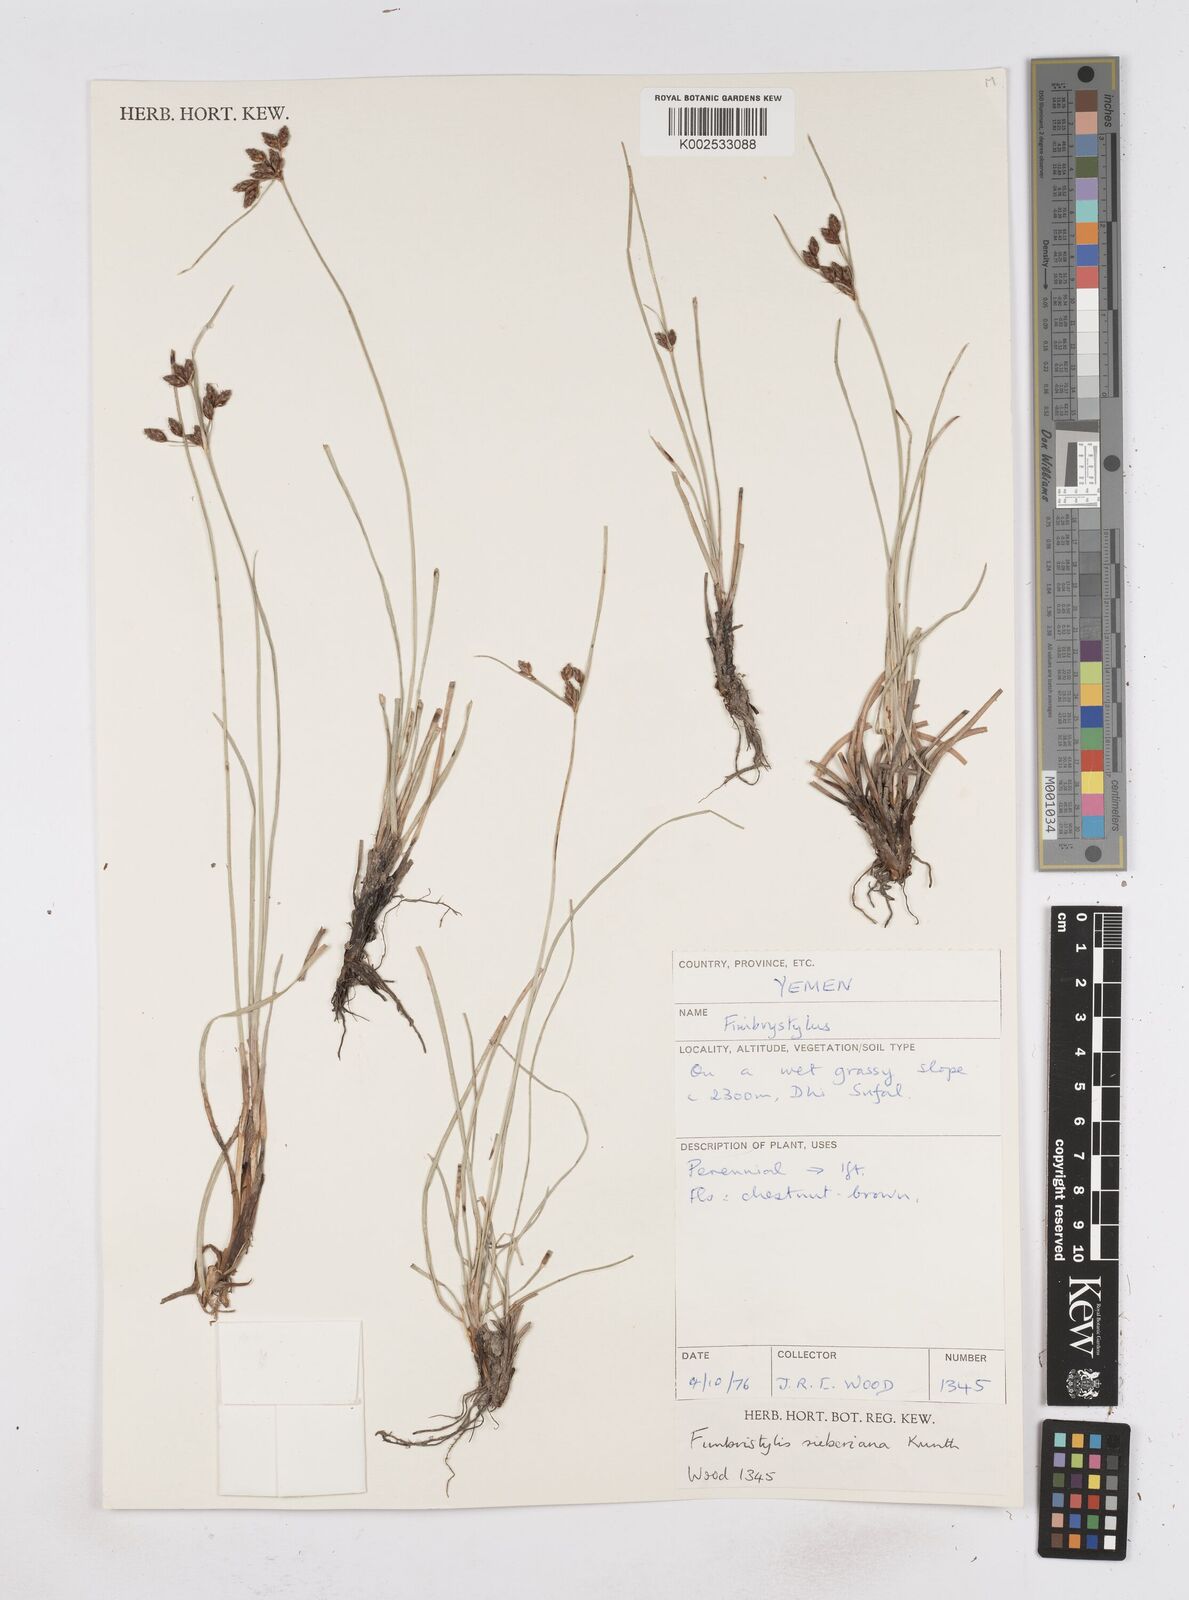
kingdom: Plantae
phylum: Tracheophyta
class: Liliopsida
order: Poales
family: Cyperaceae
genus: Fimbristylis
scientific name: Fimbristylis ferruginea
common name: West indian fimbry
